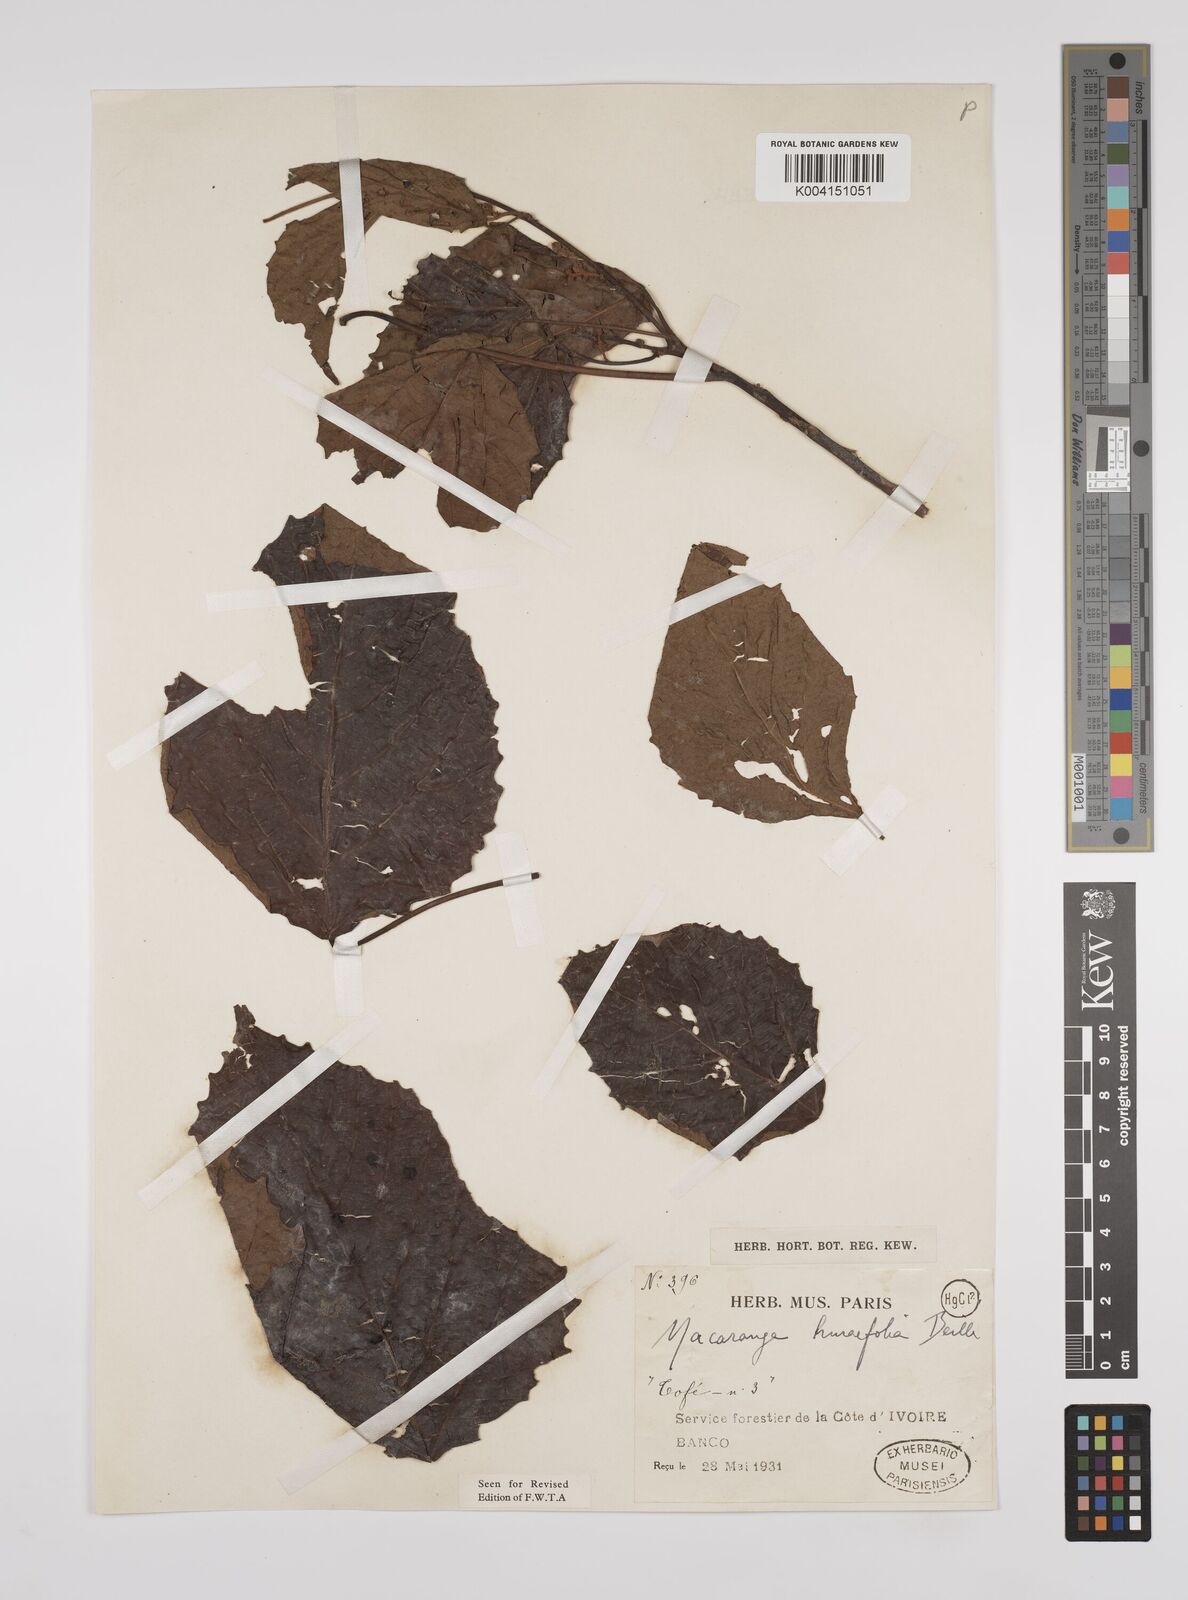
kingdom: Plantae
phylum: Tracheophyta
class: Magnoliopsida
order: Malpighiales
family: Euphorbiaceae
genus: Macaranga
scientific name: Macaranga hurifolia
